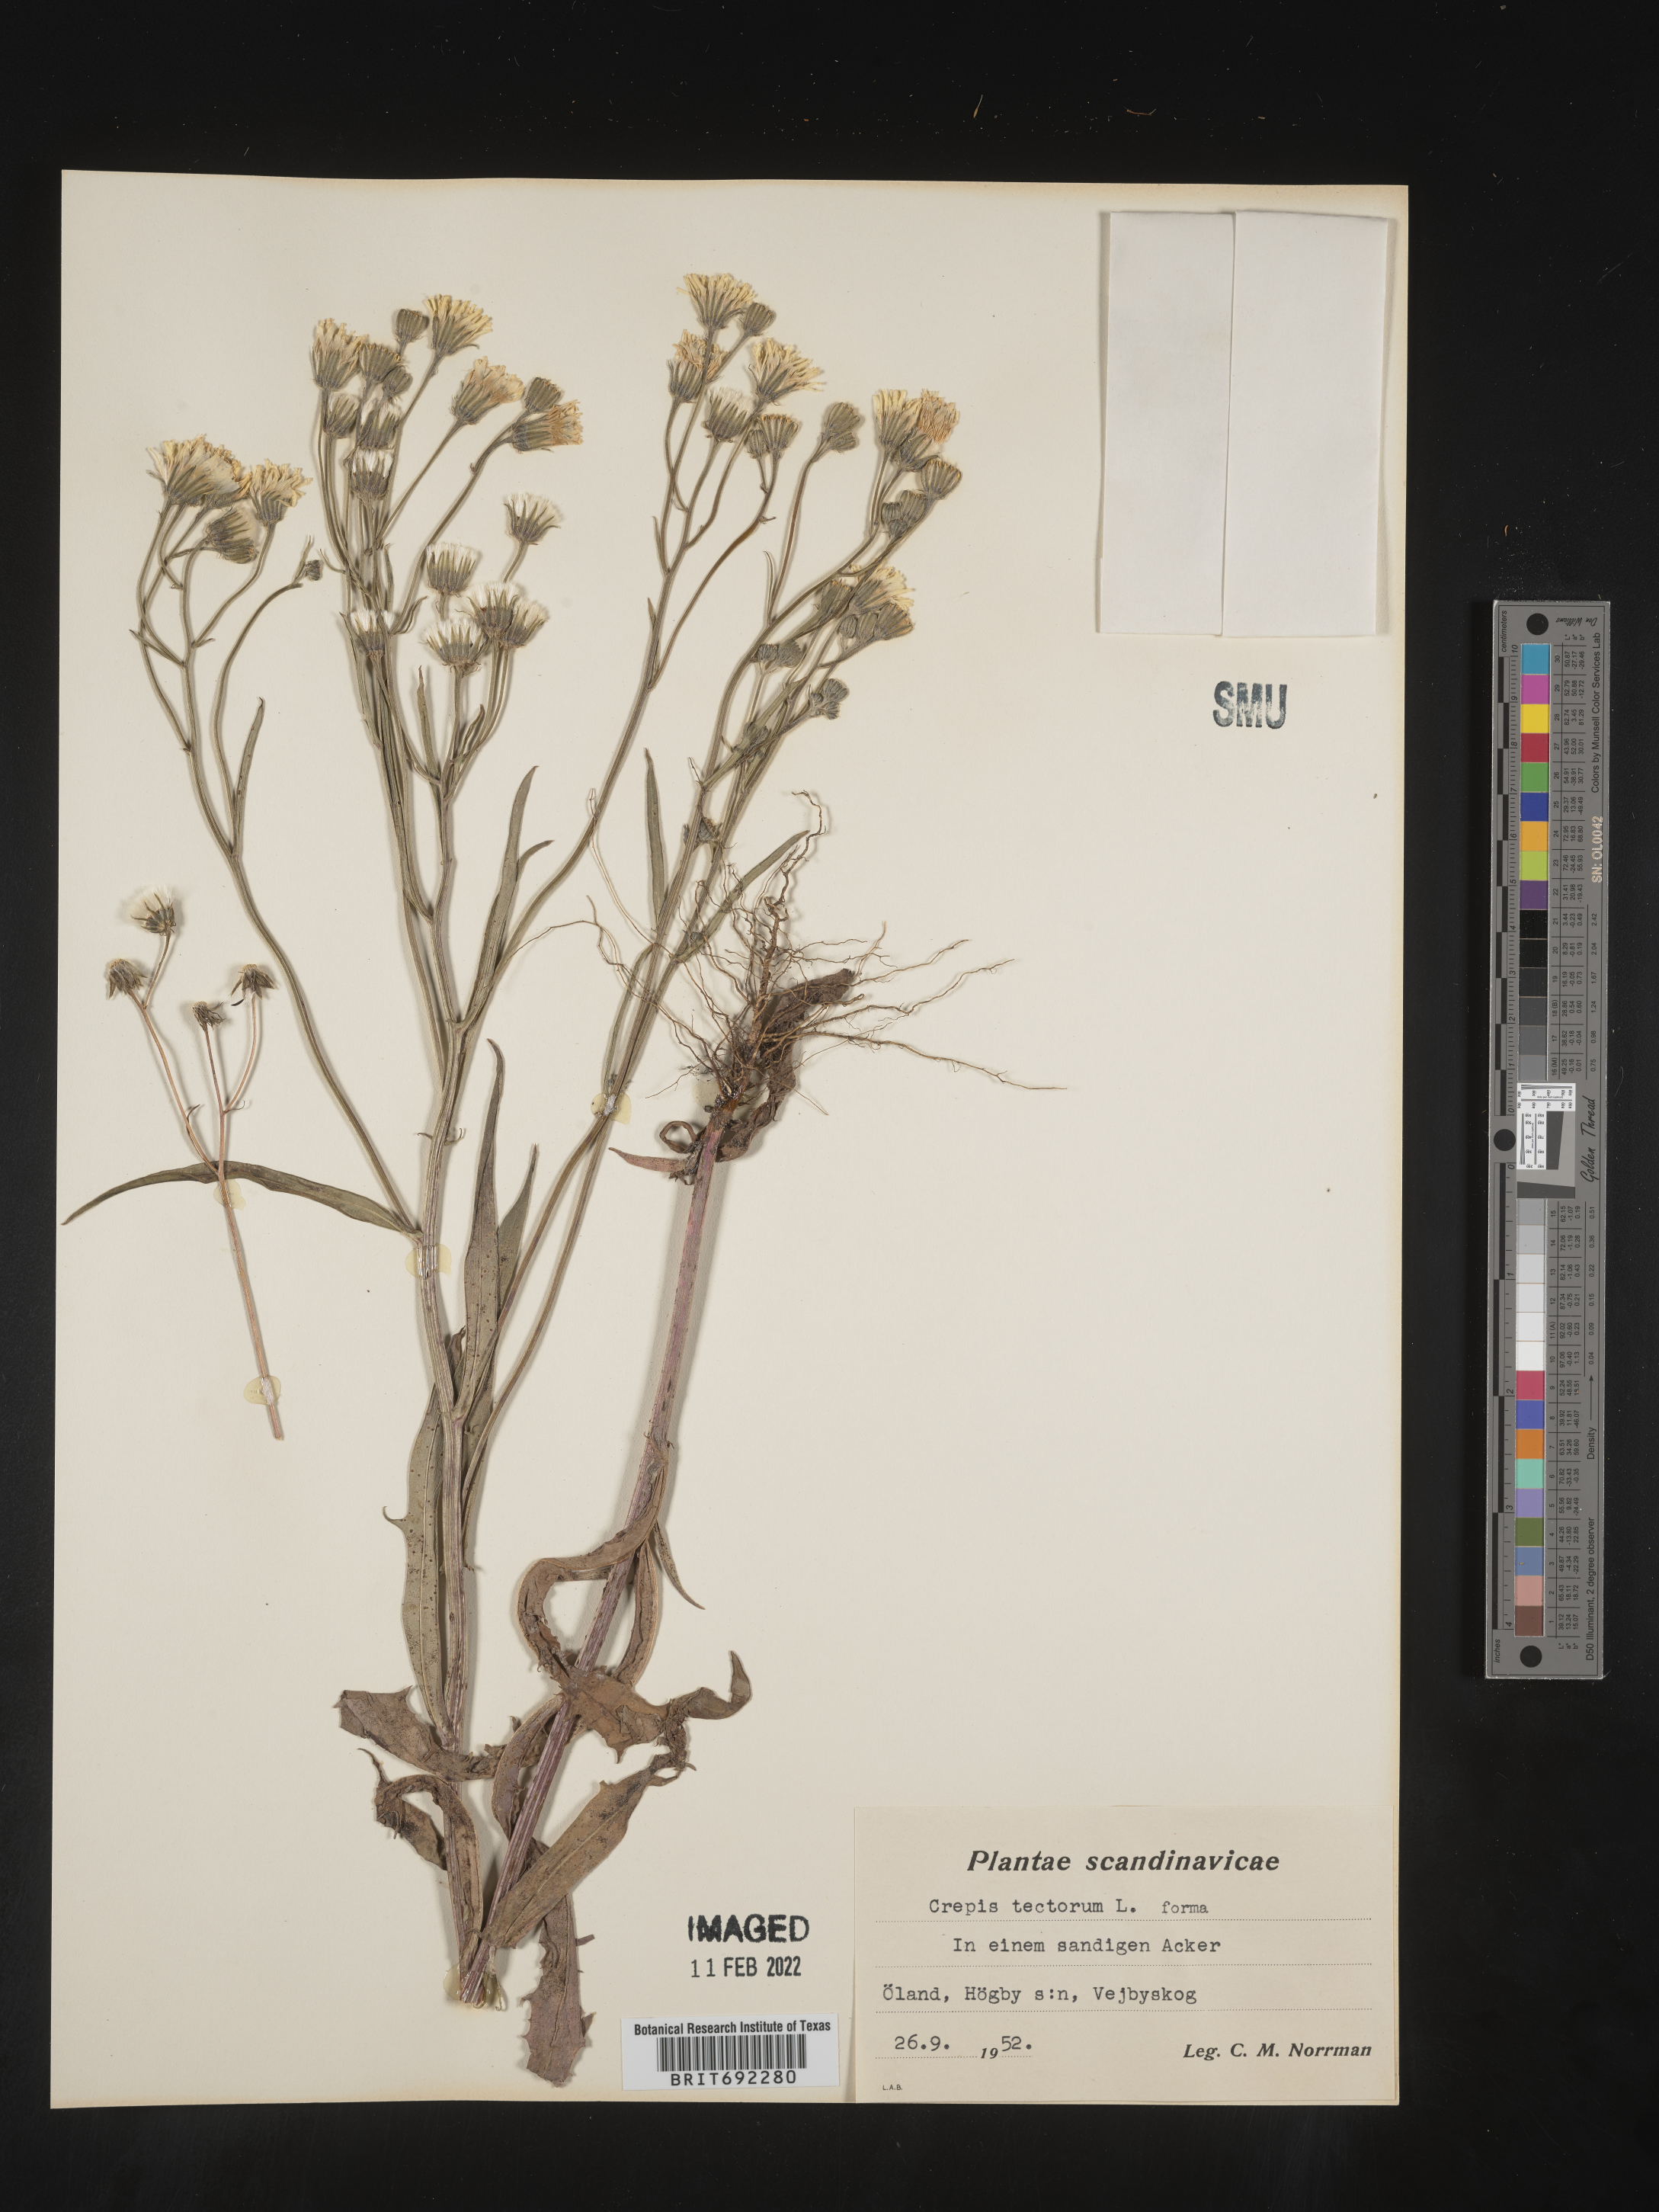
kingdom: Plantae
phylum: Tracheophyta
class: Magnoliopsida
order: Asterales
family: Asteraceae
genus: Crepis
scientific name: Crepis
